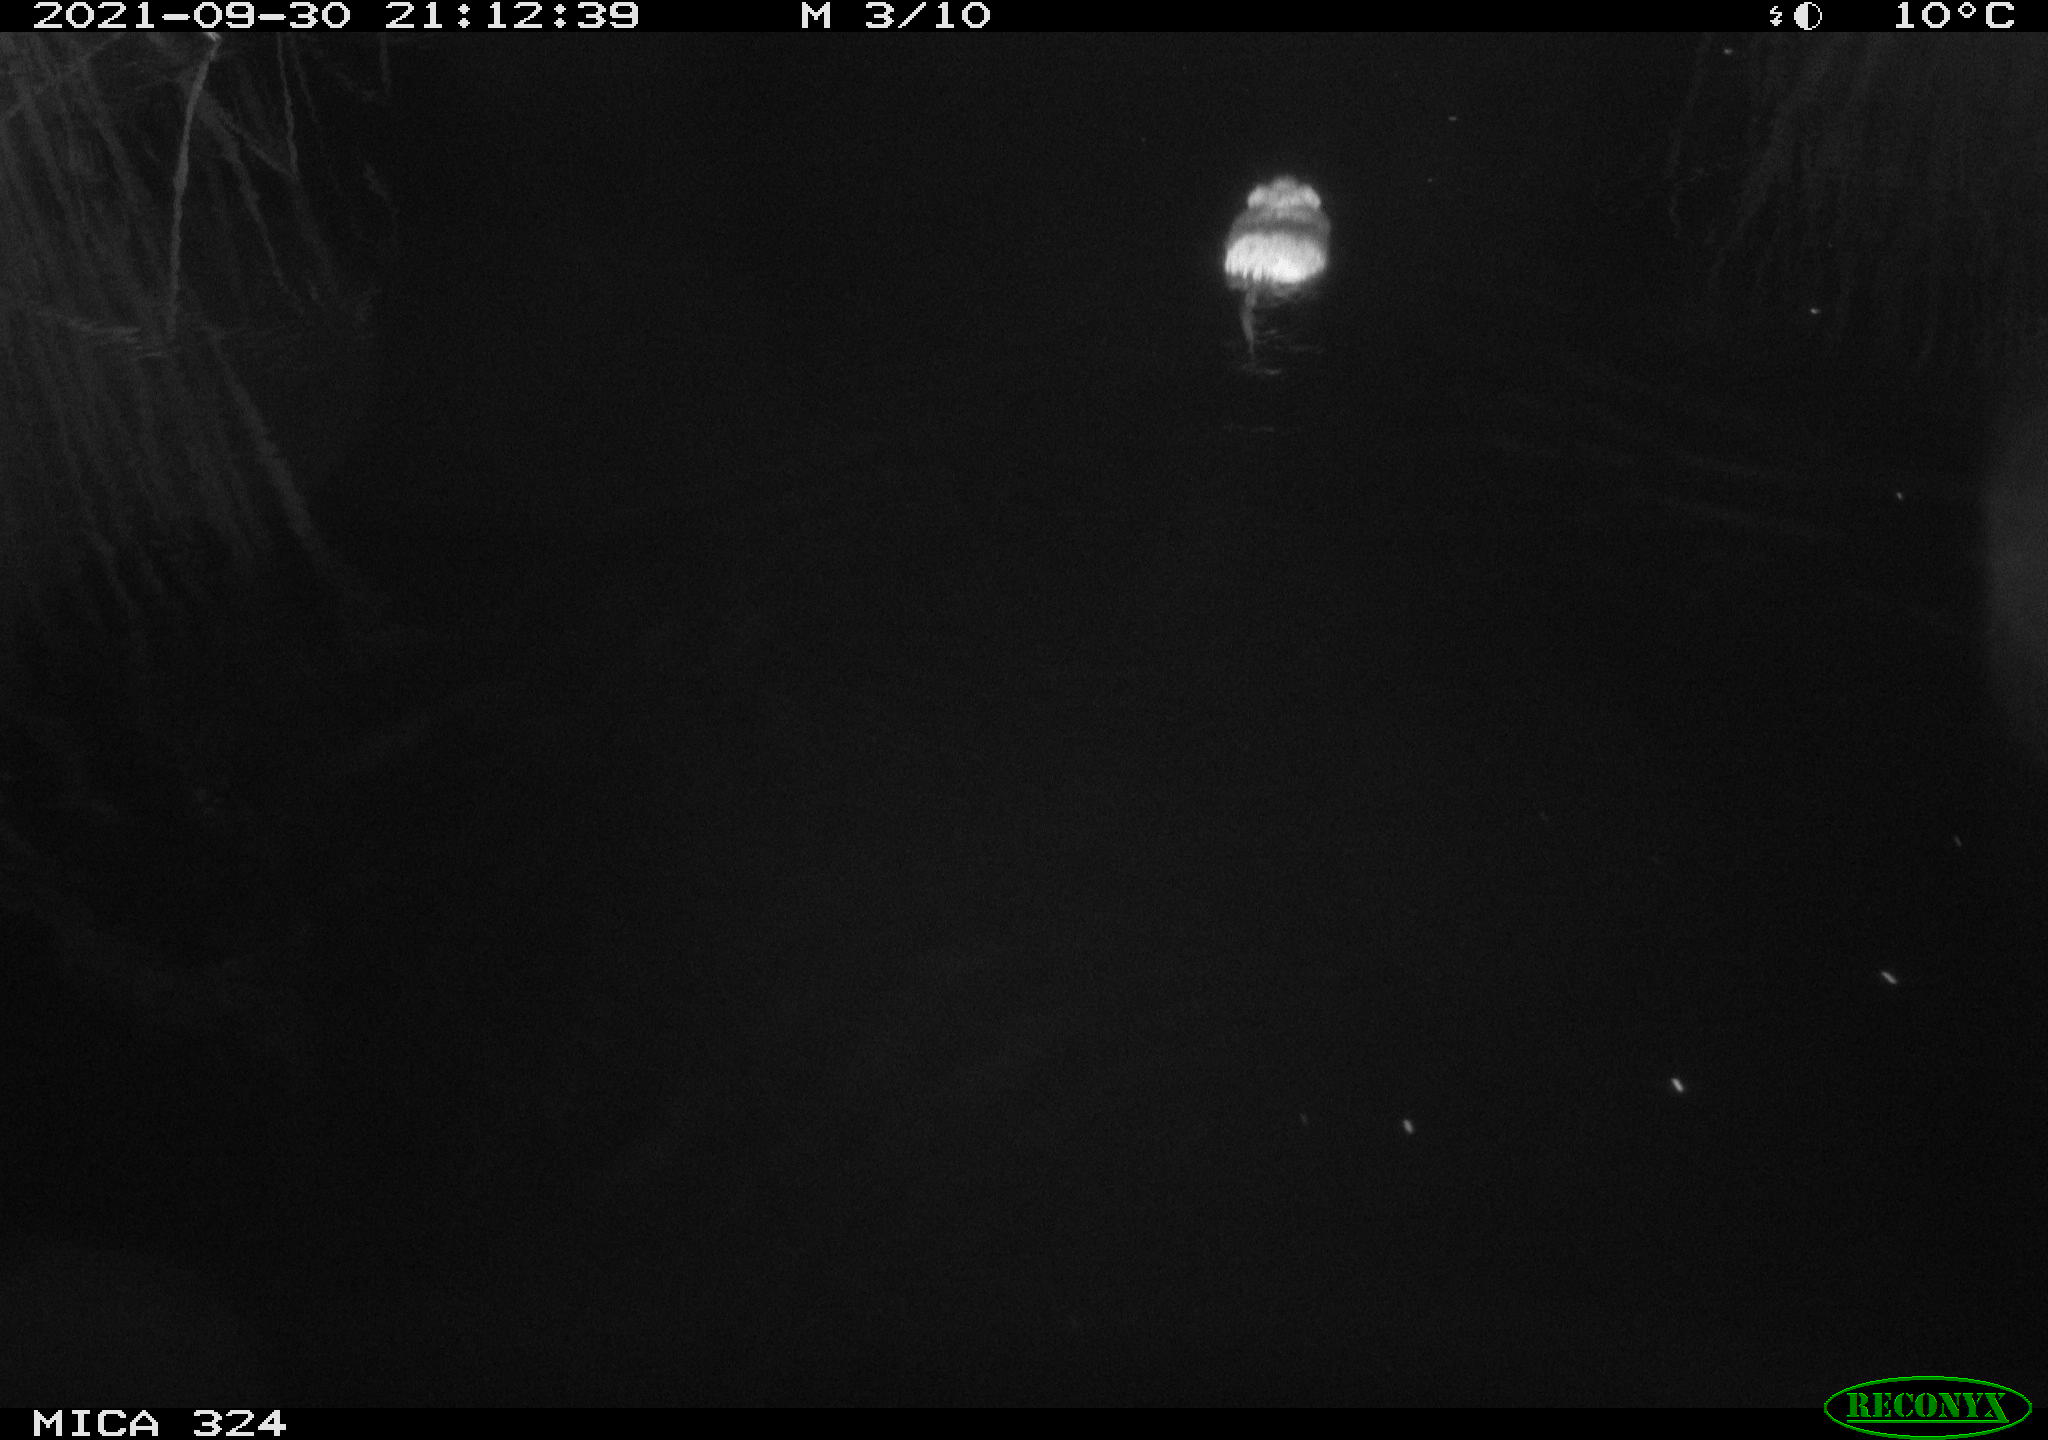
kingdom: Animalia
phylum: Chordata
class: Mammalia
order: Rodentia
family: Cricetidae
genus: Ondatra
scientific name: Ondatra zibethicus
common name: Muskrat
